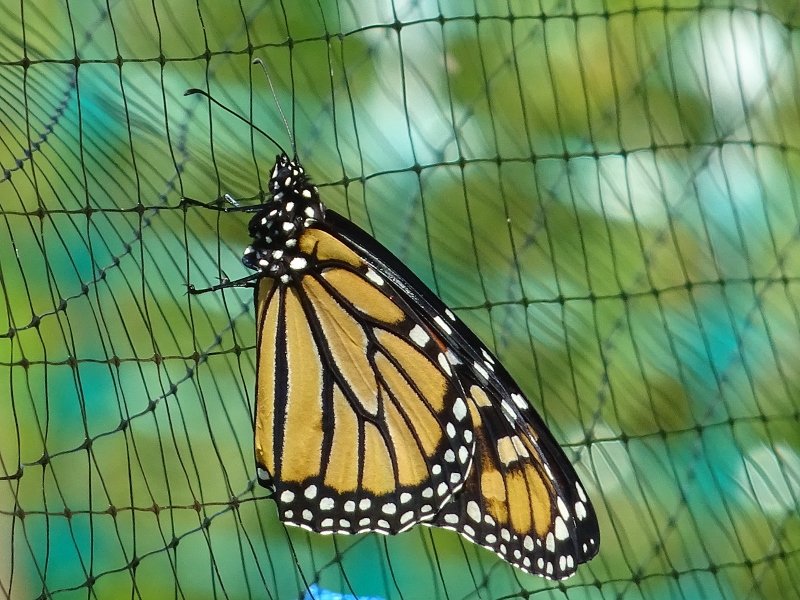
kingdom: Animalia
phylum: Arthropoda
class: Insecta
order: Lepidoptera
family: Nymphalidae
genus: Danaus
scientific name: Danaus plexippus
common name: Monarch
